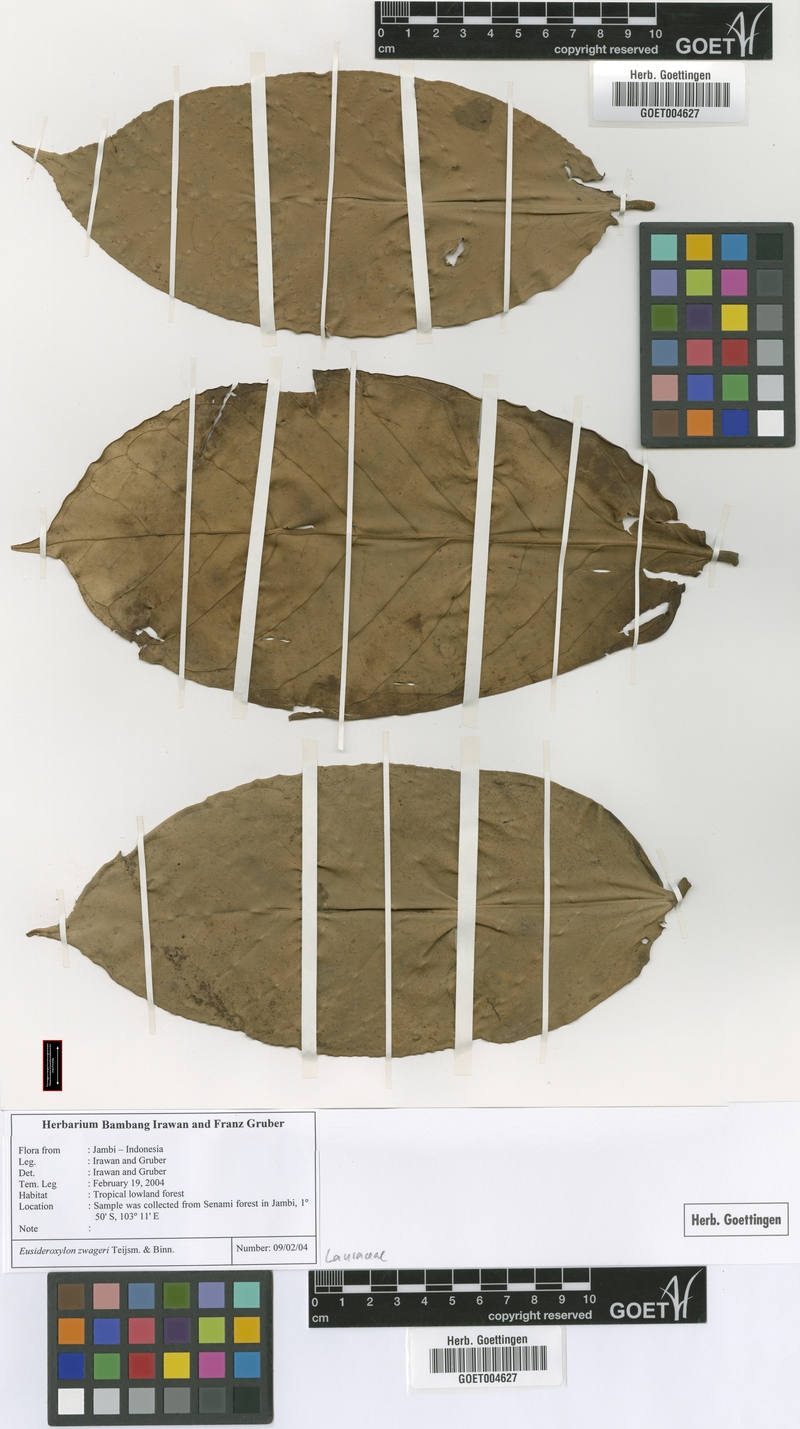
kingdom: Plantae
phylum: Tracheophyta
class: Magnoliopsida
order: Laurales
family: Lauraceae
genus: Eusideroxylon
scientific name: Eusideroxylon zwageri
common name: Borneo ironwood
